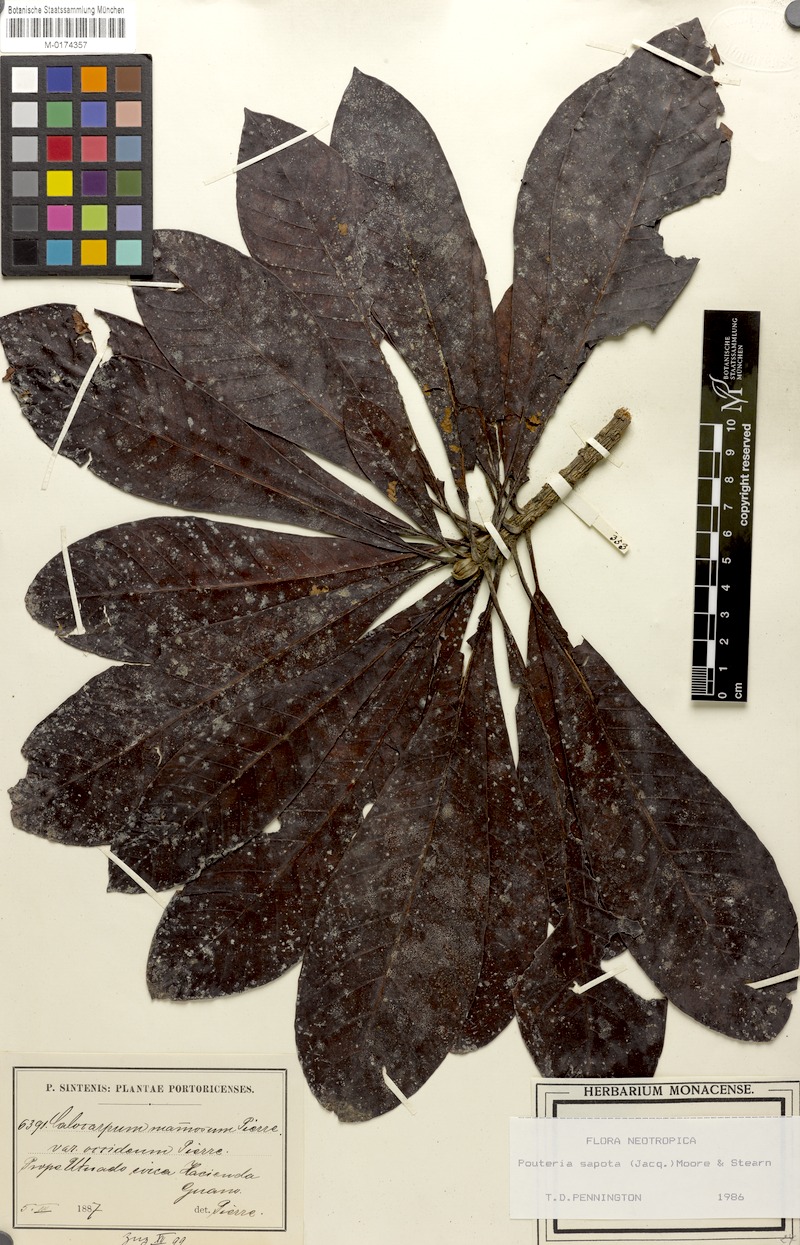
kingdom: Plantae
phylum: Tracheophyta
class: Magnoliopsida
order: Ericales
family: Sapotaceae
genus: Pouteria
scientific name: Pouteria sapota
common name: Mamey
